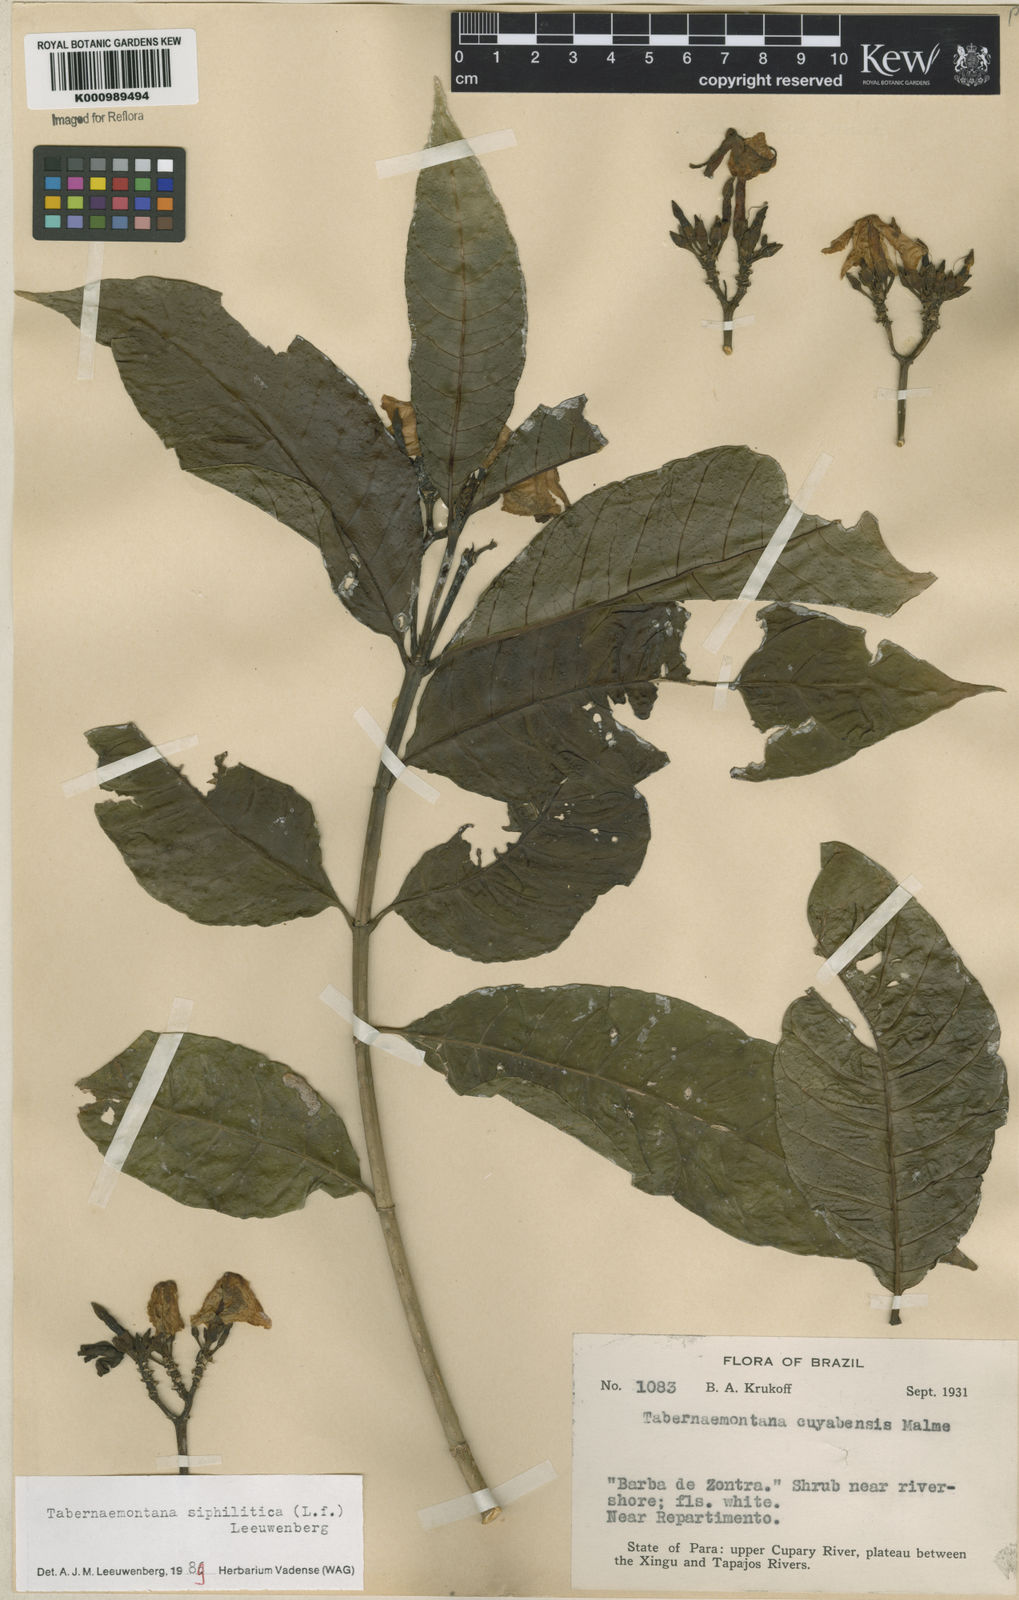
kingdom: Plantae
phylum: Tracheophyta
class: Magnoliopsida
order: Gentianales
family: Apocynaceae
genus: Tabernaemontana
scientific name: Tabernaemontana siphilitica
